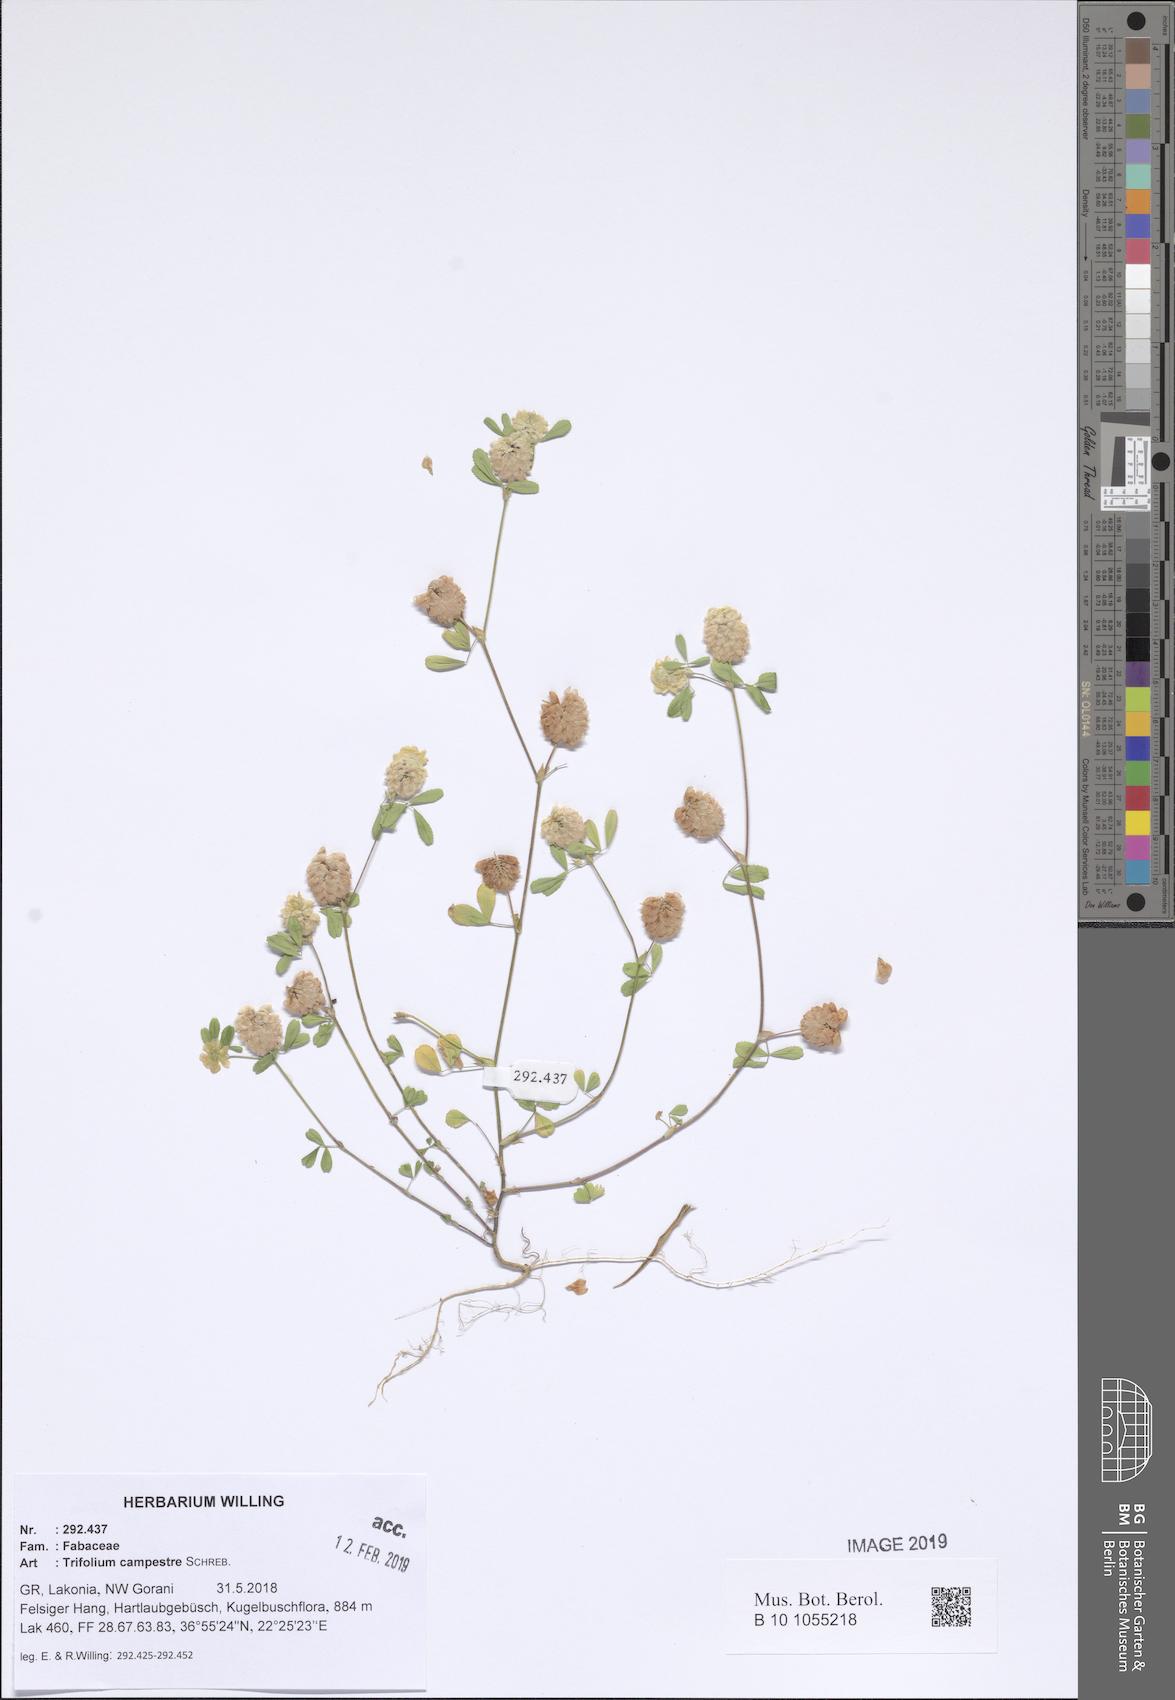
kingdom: Plantae
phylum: Tracheophyta
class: Magnoliopsida
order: Fabales
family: Fabaceae
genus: Trifolium
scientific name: Trifolium campestre
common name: Field clover
